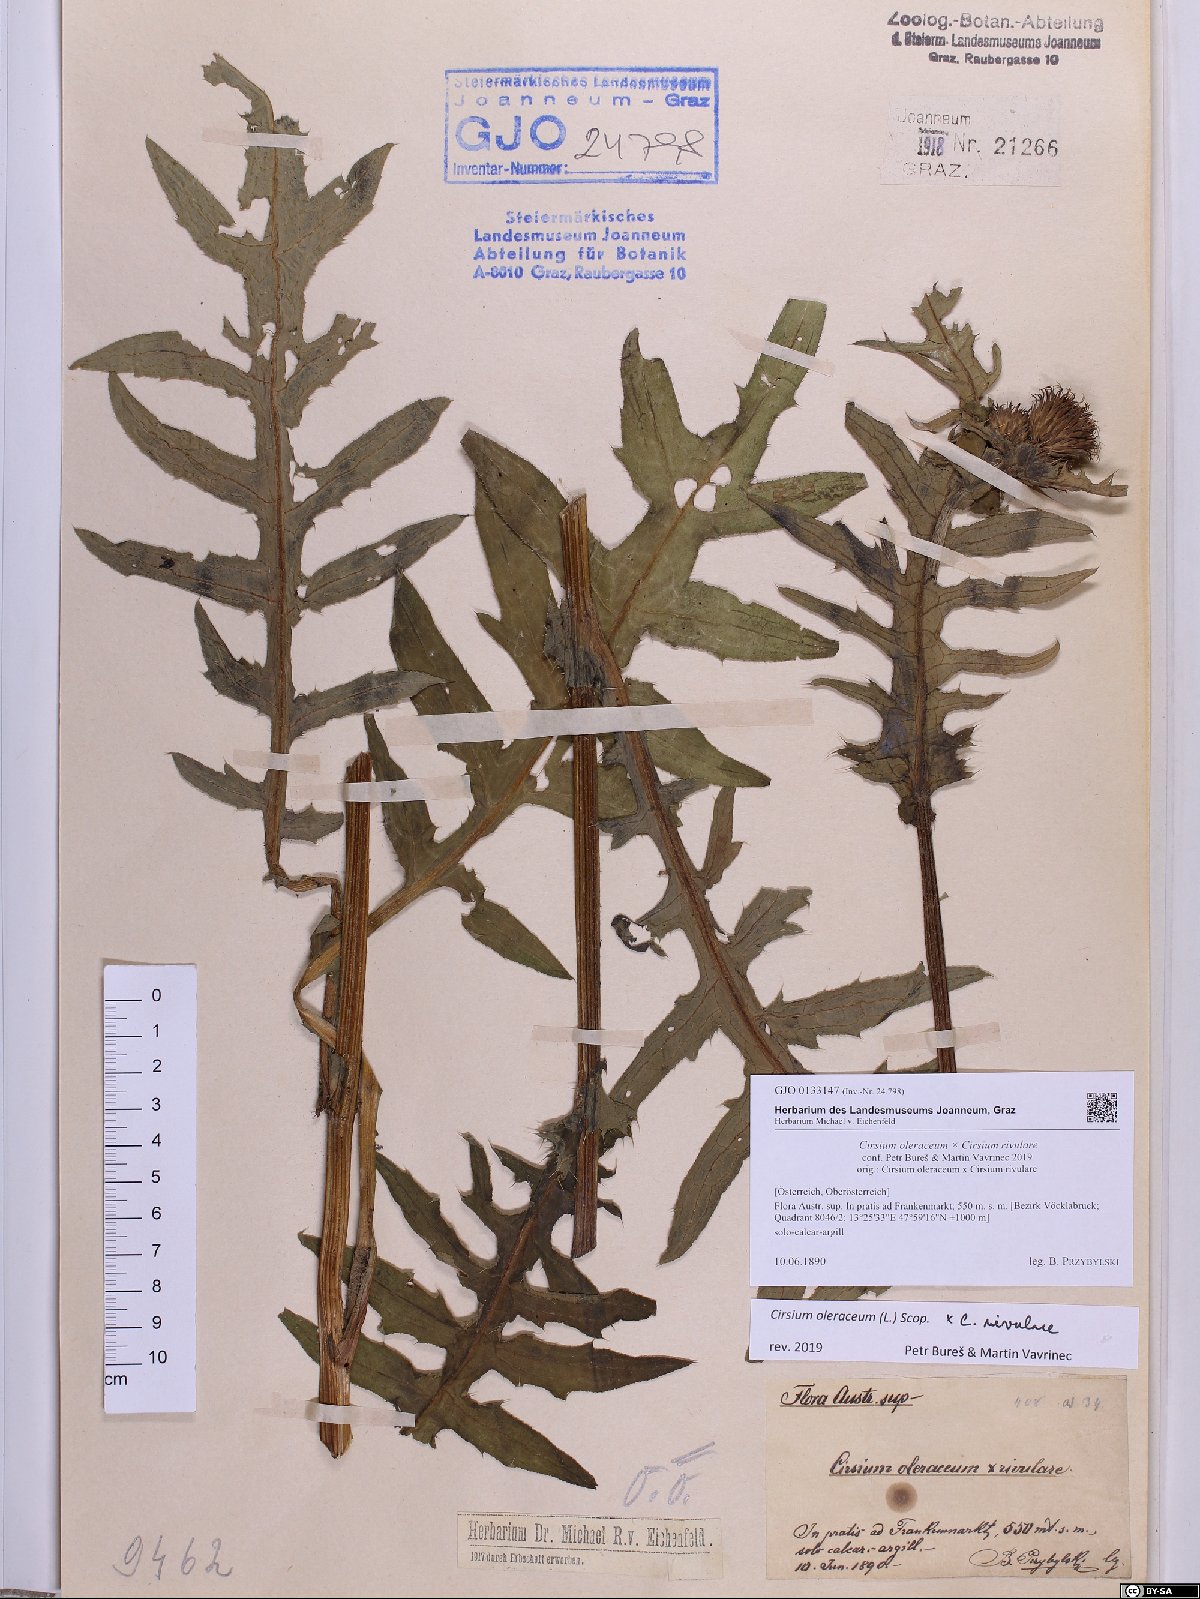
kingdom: Plantae
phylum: Tracheophyta
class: Magnoliopsida
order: Asterales
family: Asteraceae
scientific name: Asteraceae
